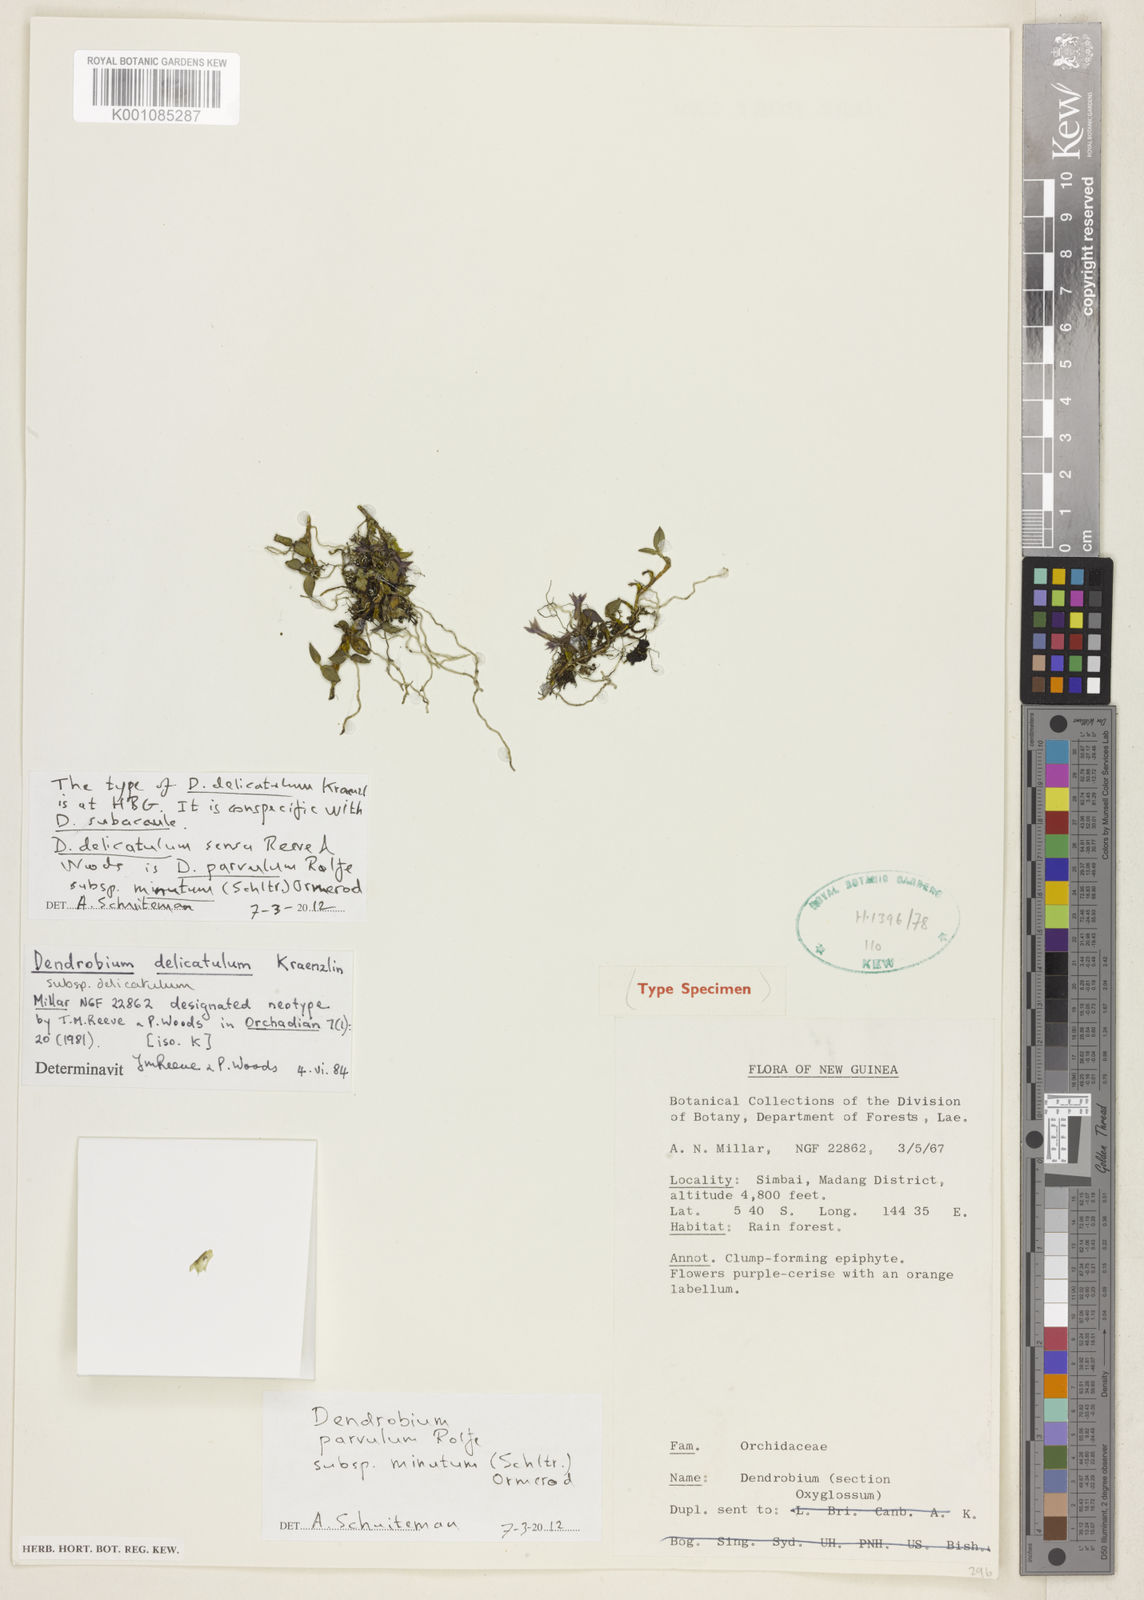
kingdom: Plantae
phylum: Tracheophyta
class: Liliopsida
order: Asparagales
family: Orchidaceae
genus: Dendrobium
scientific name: Dendrobium parvulum
